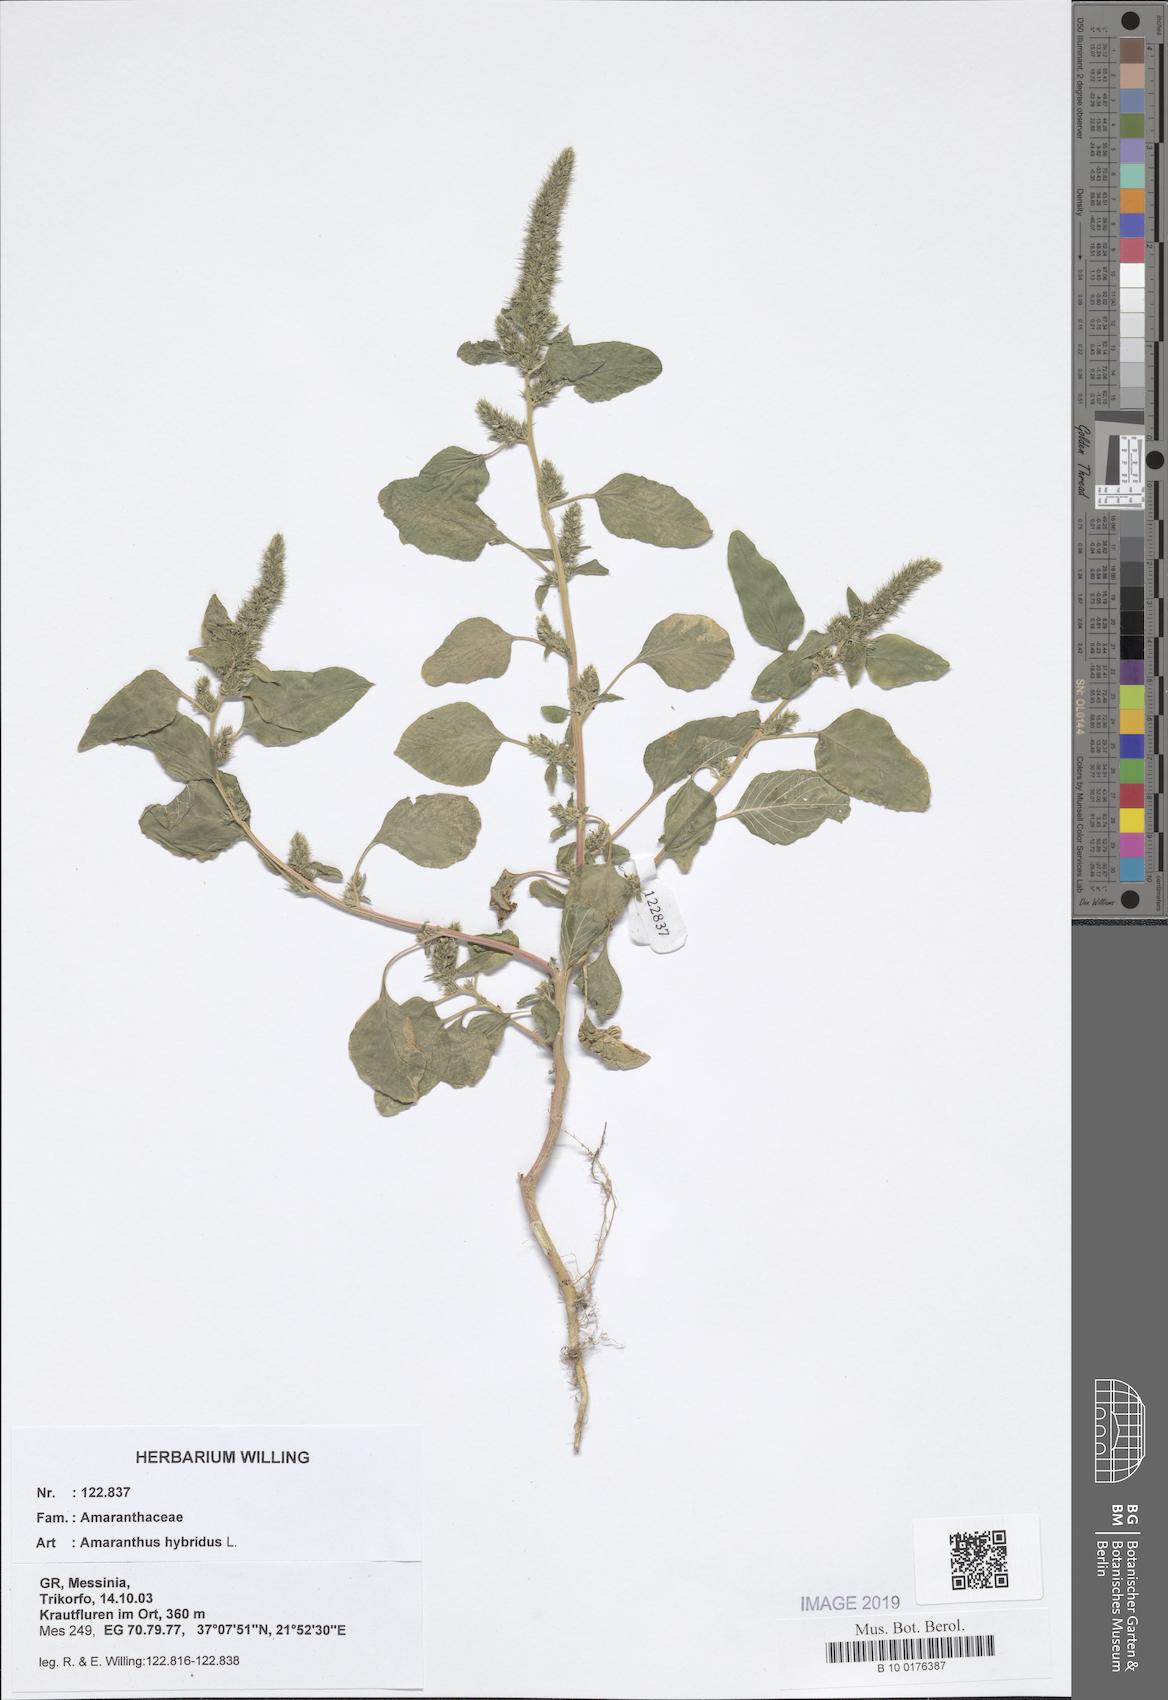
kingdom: Plantae
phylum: Tracheophyta
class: Magnoliopsida
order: Caryophyllales
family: Amaranthaceae
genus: Amaranthus
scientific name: Amaranthus hybridus
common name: Green amaranth
